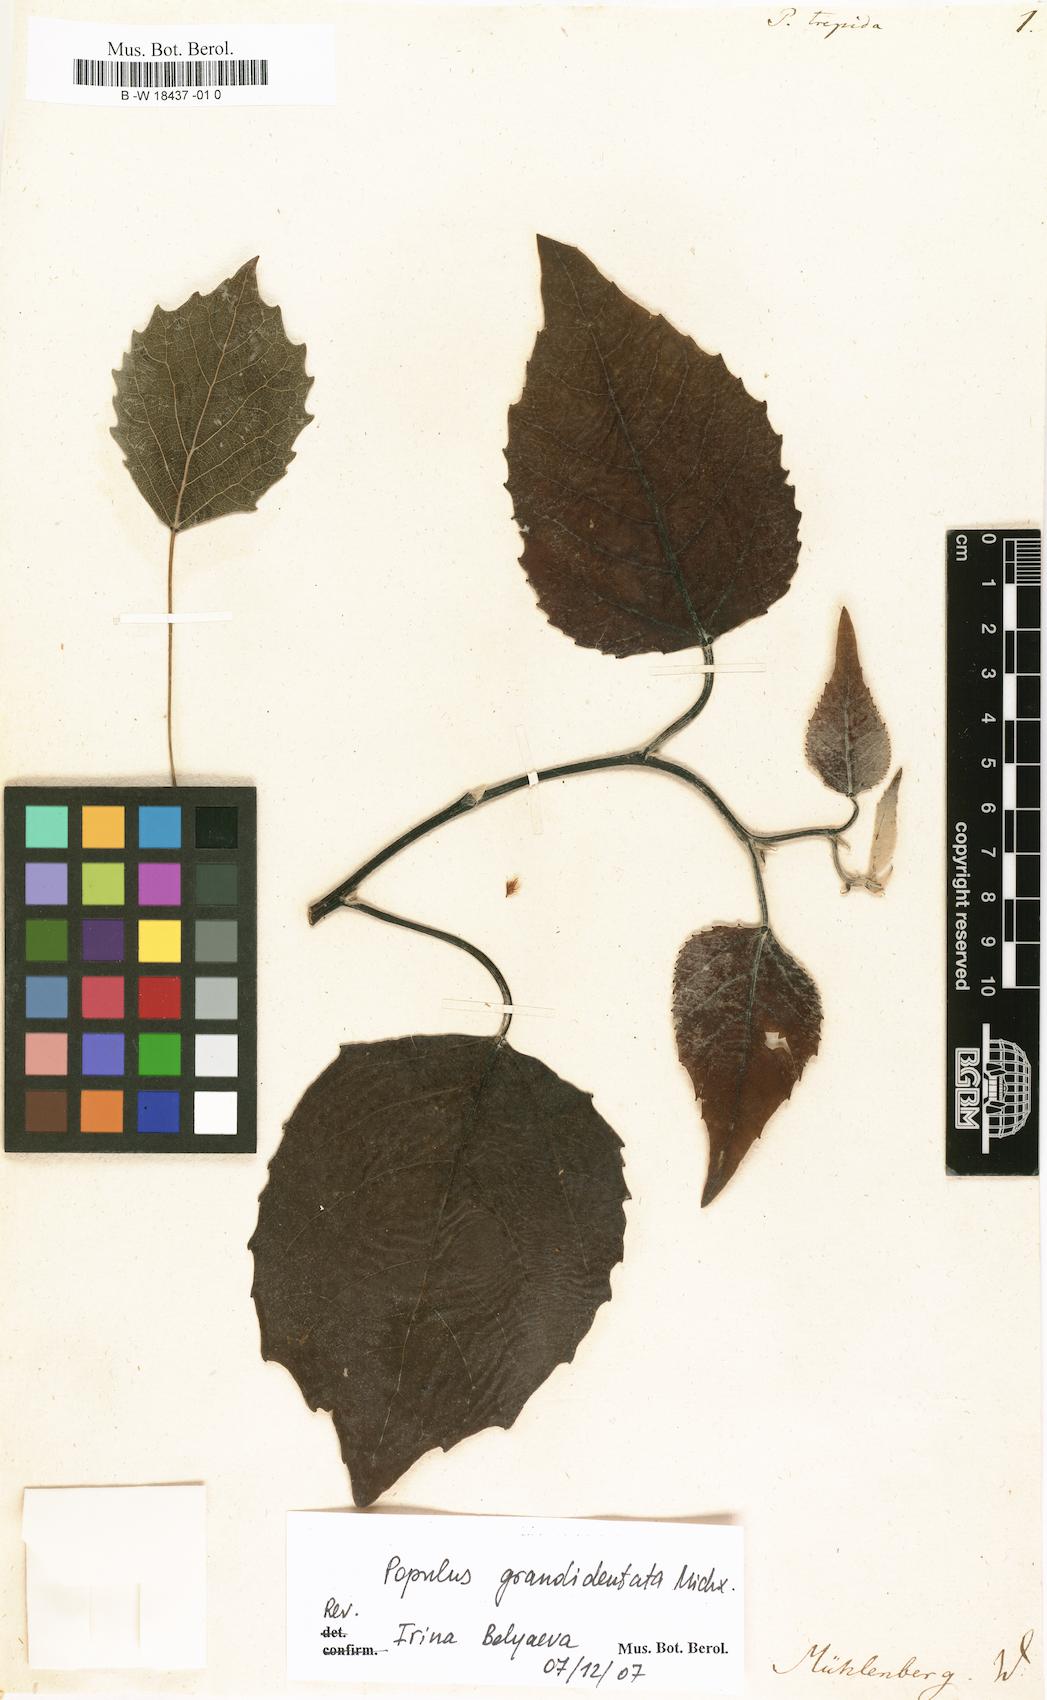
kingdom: Plantae
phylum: Tracheophyta
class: Magnoliopsida
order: Malpighiales
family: Salicaceae
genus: Populus
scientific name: Populus tremuloides
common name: Quaking aspen
